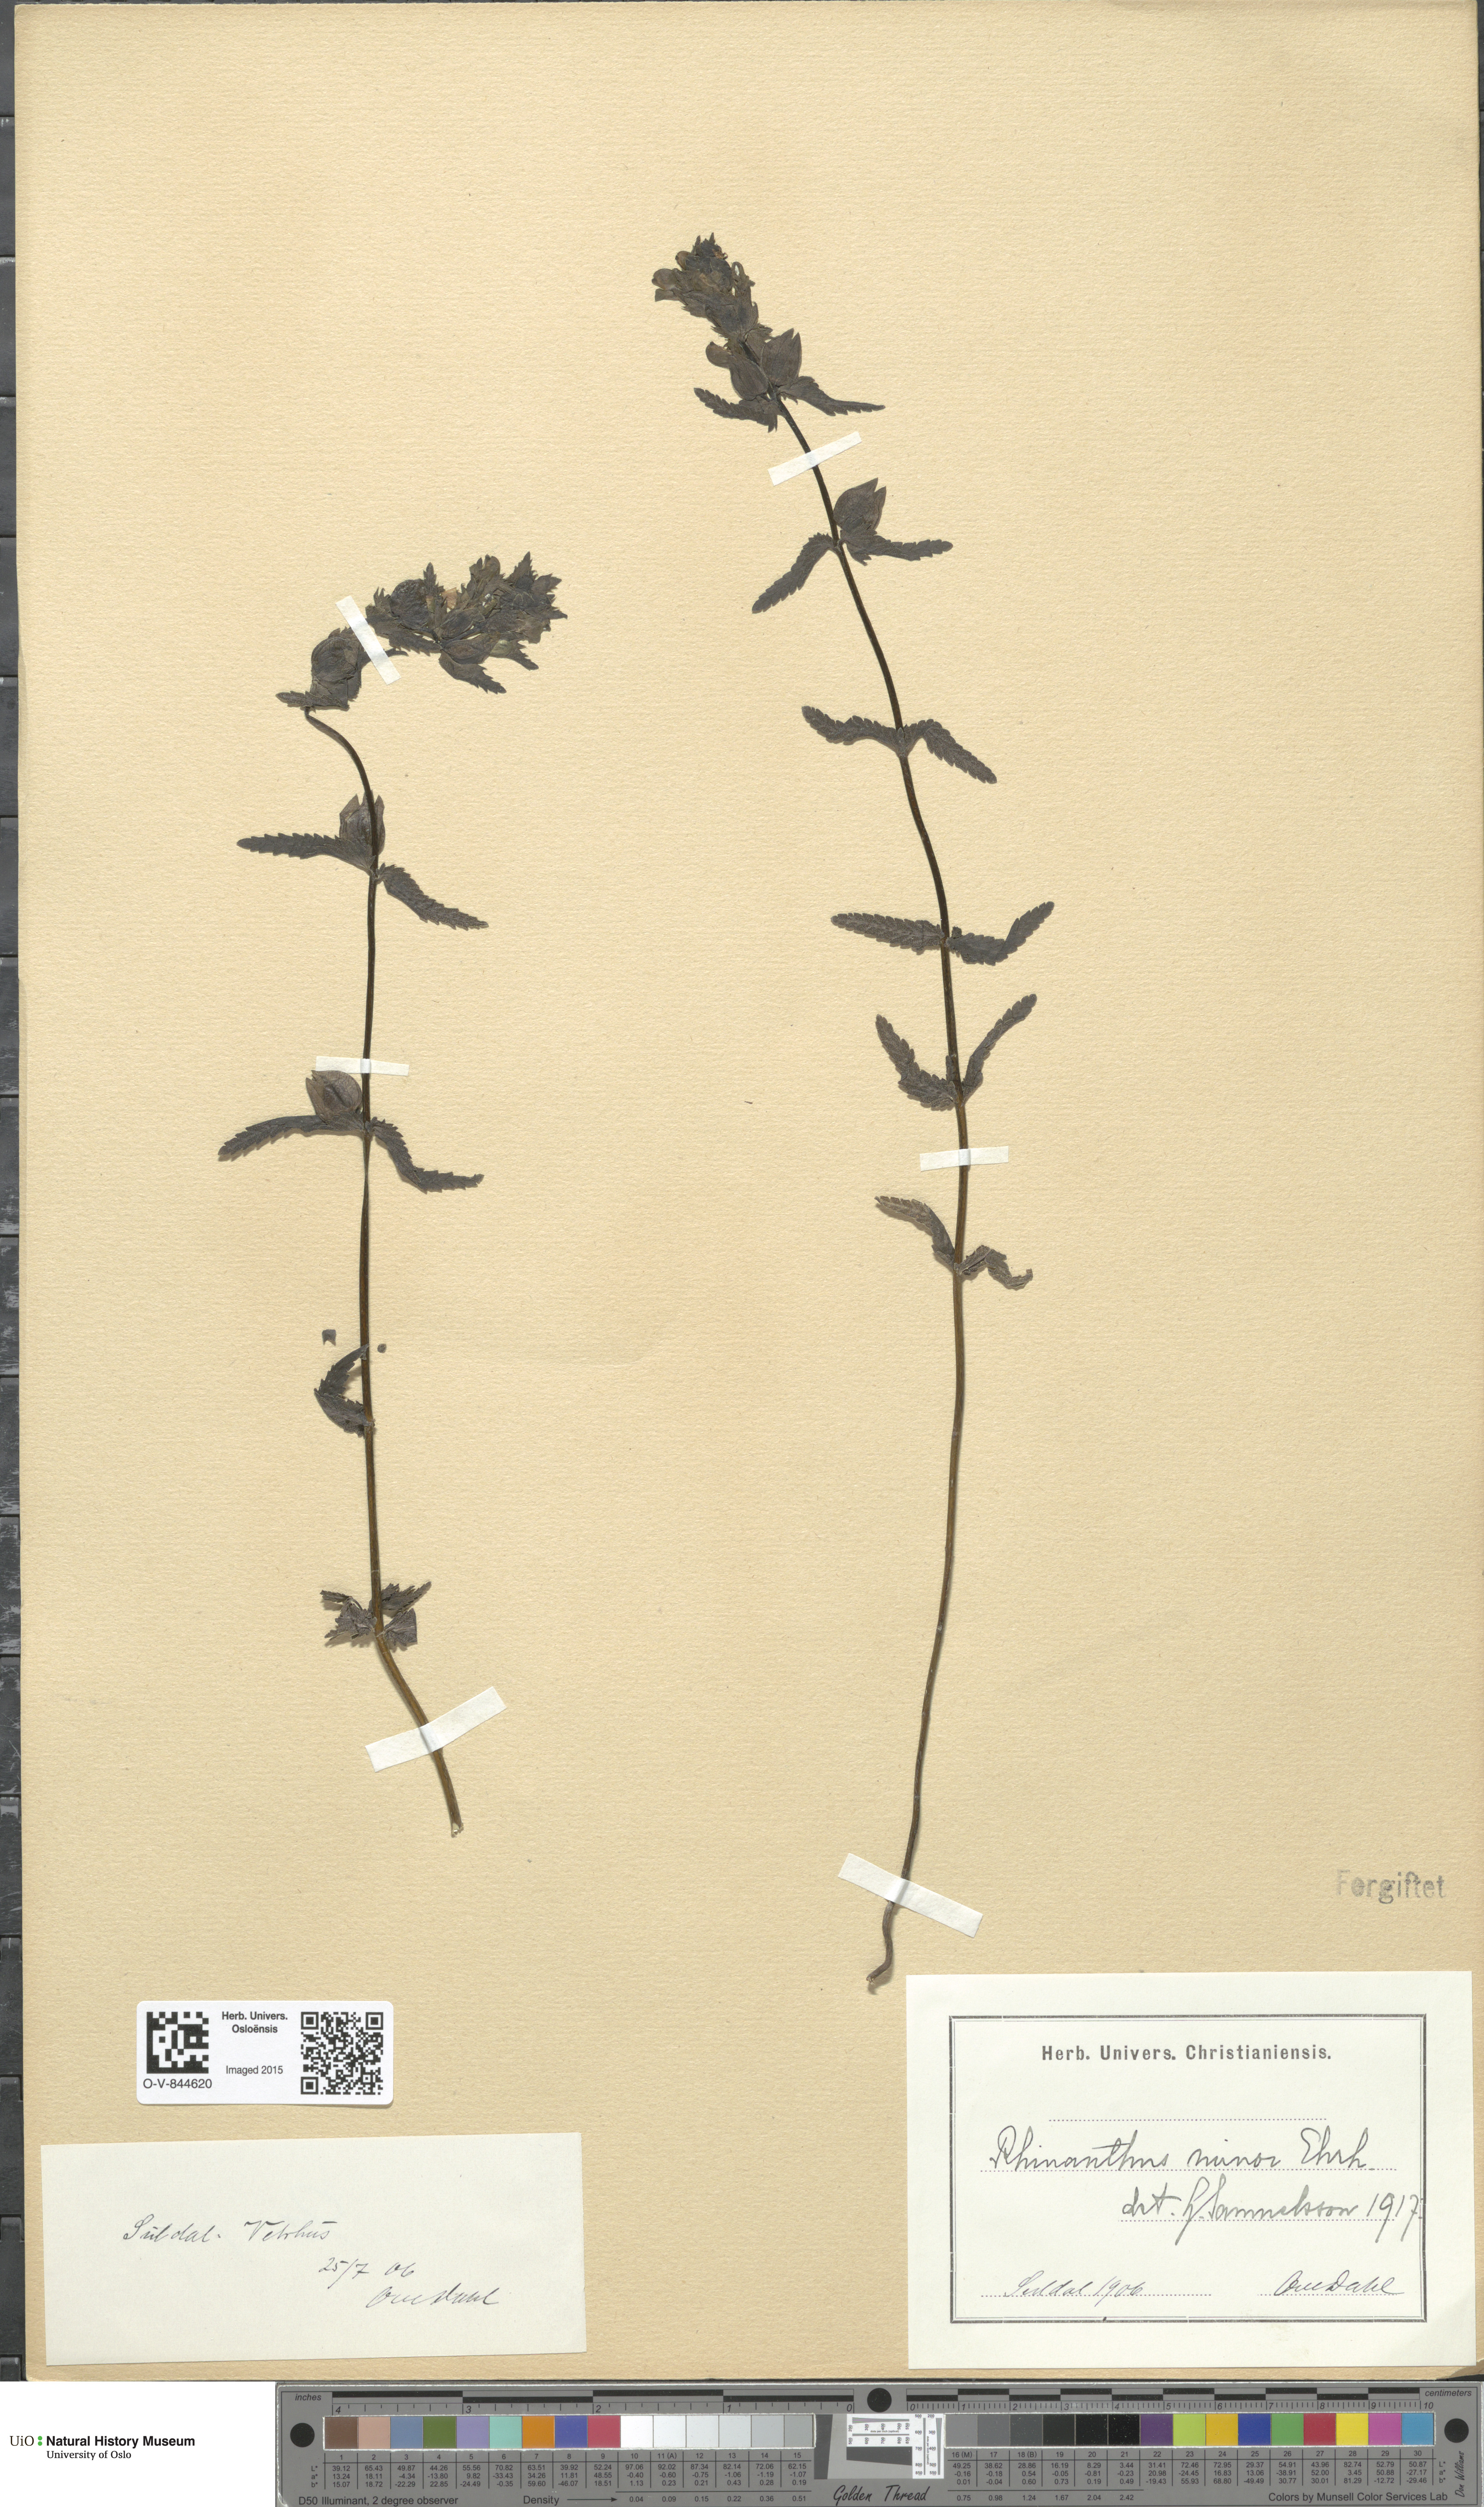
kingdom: Plantae
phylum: Tracheophyta
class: Magnoliopsida
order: Lamiales
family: Orobanchaceae
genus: Rhinanthus
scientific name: Rhinanthus minor
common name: Yellow-rattle
